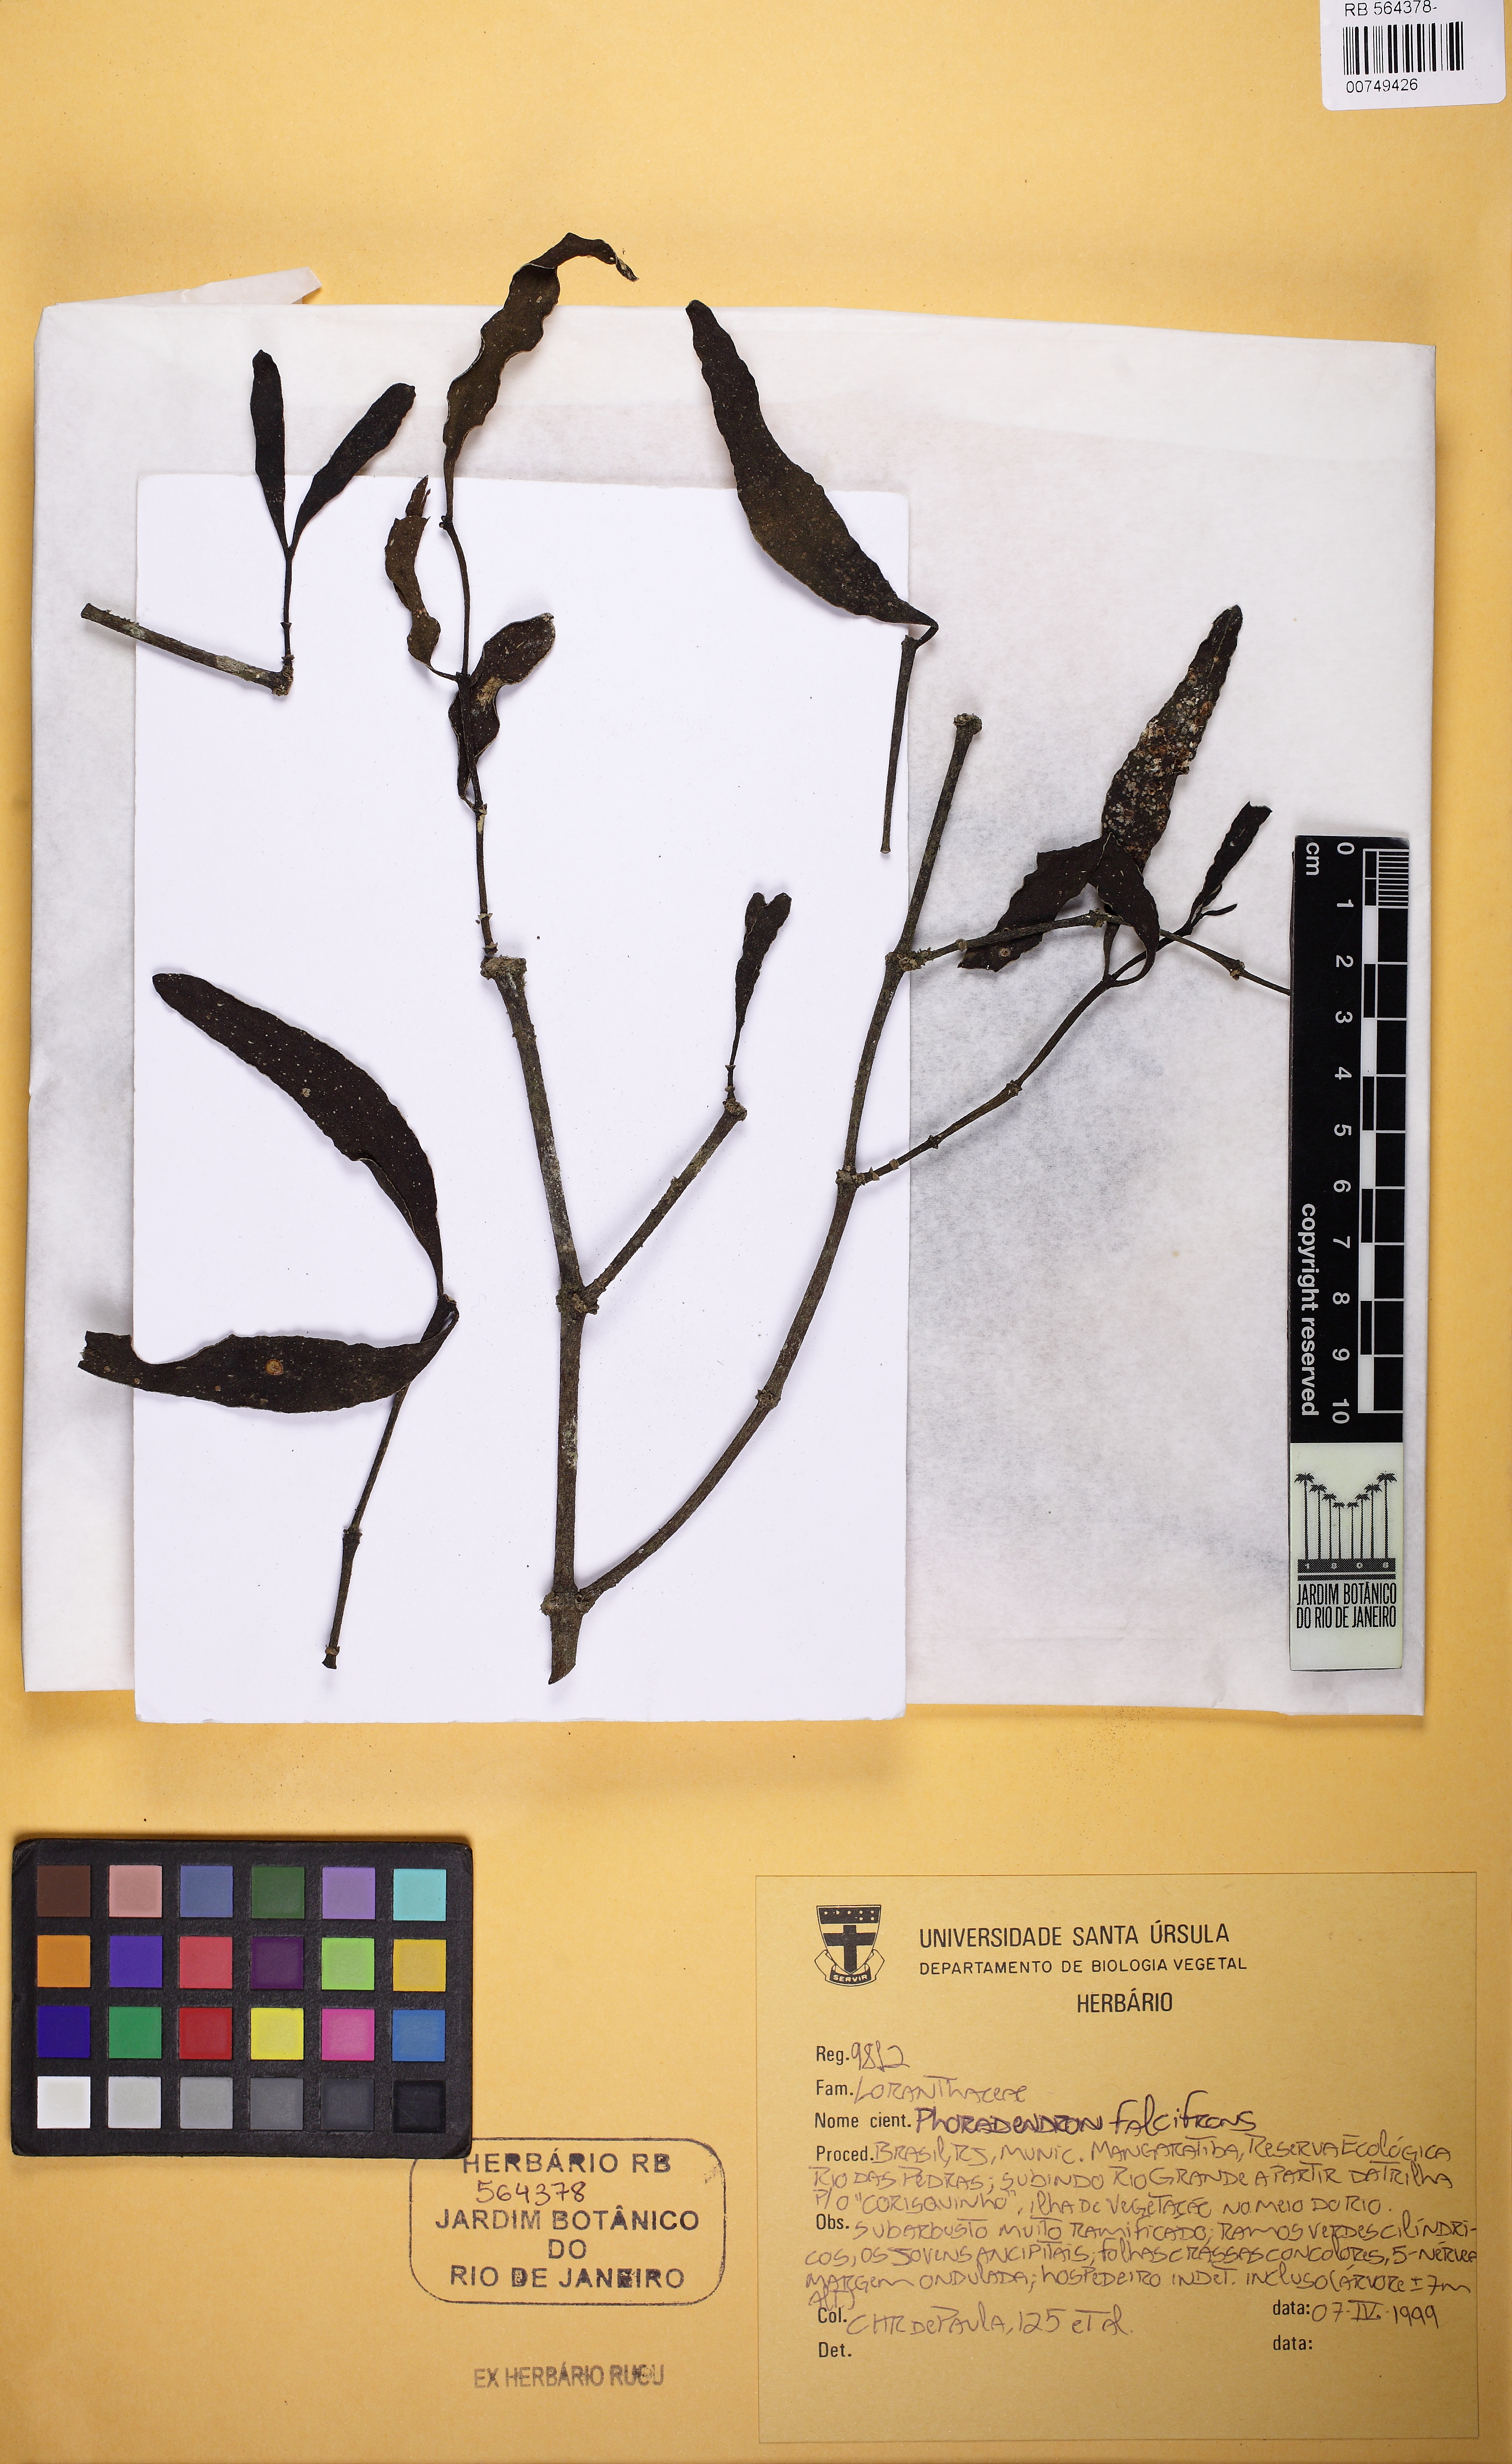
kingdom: Plantae
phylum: Tracheophyta
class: Magnoliopsida
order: Santalales
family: Viscaceae
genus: Phoradendron
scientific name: Phoradendron falcifrons
